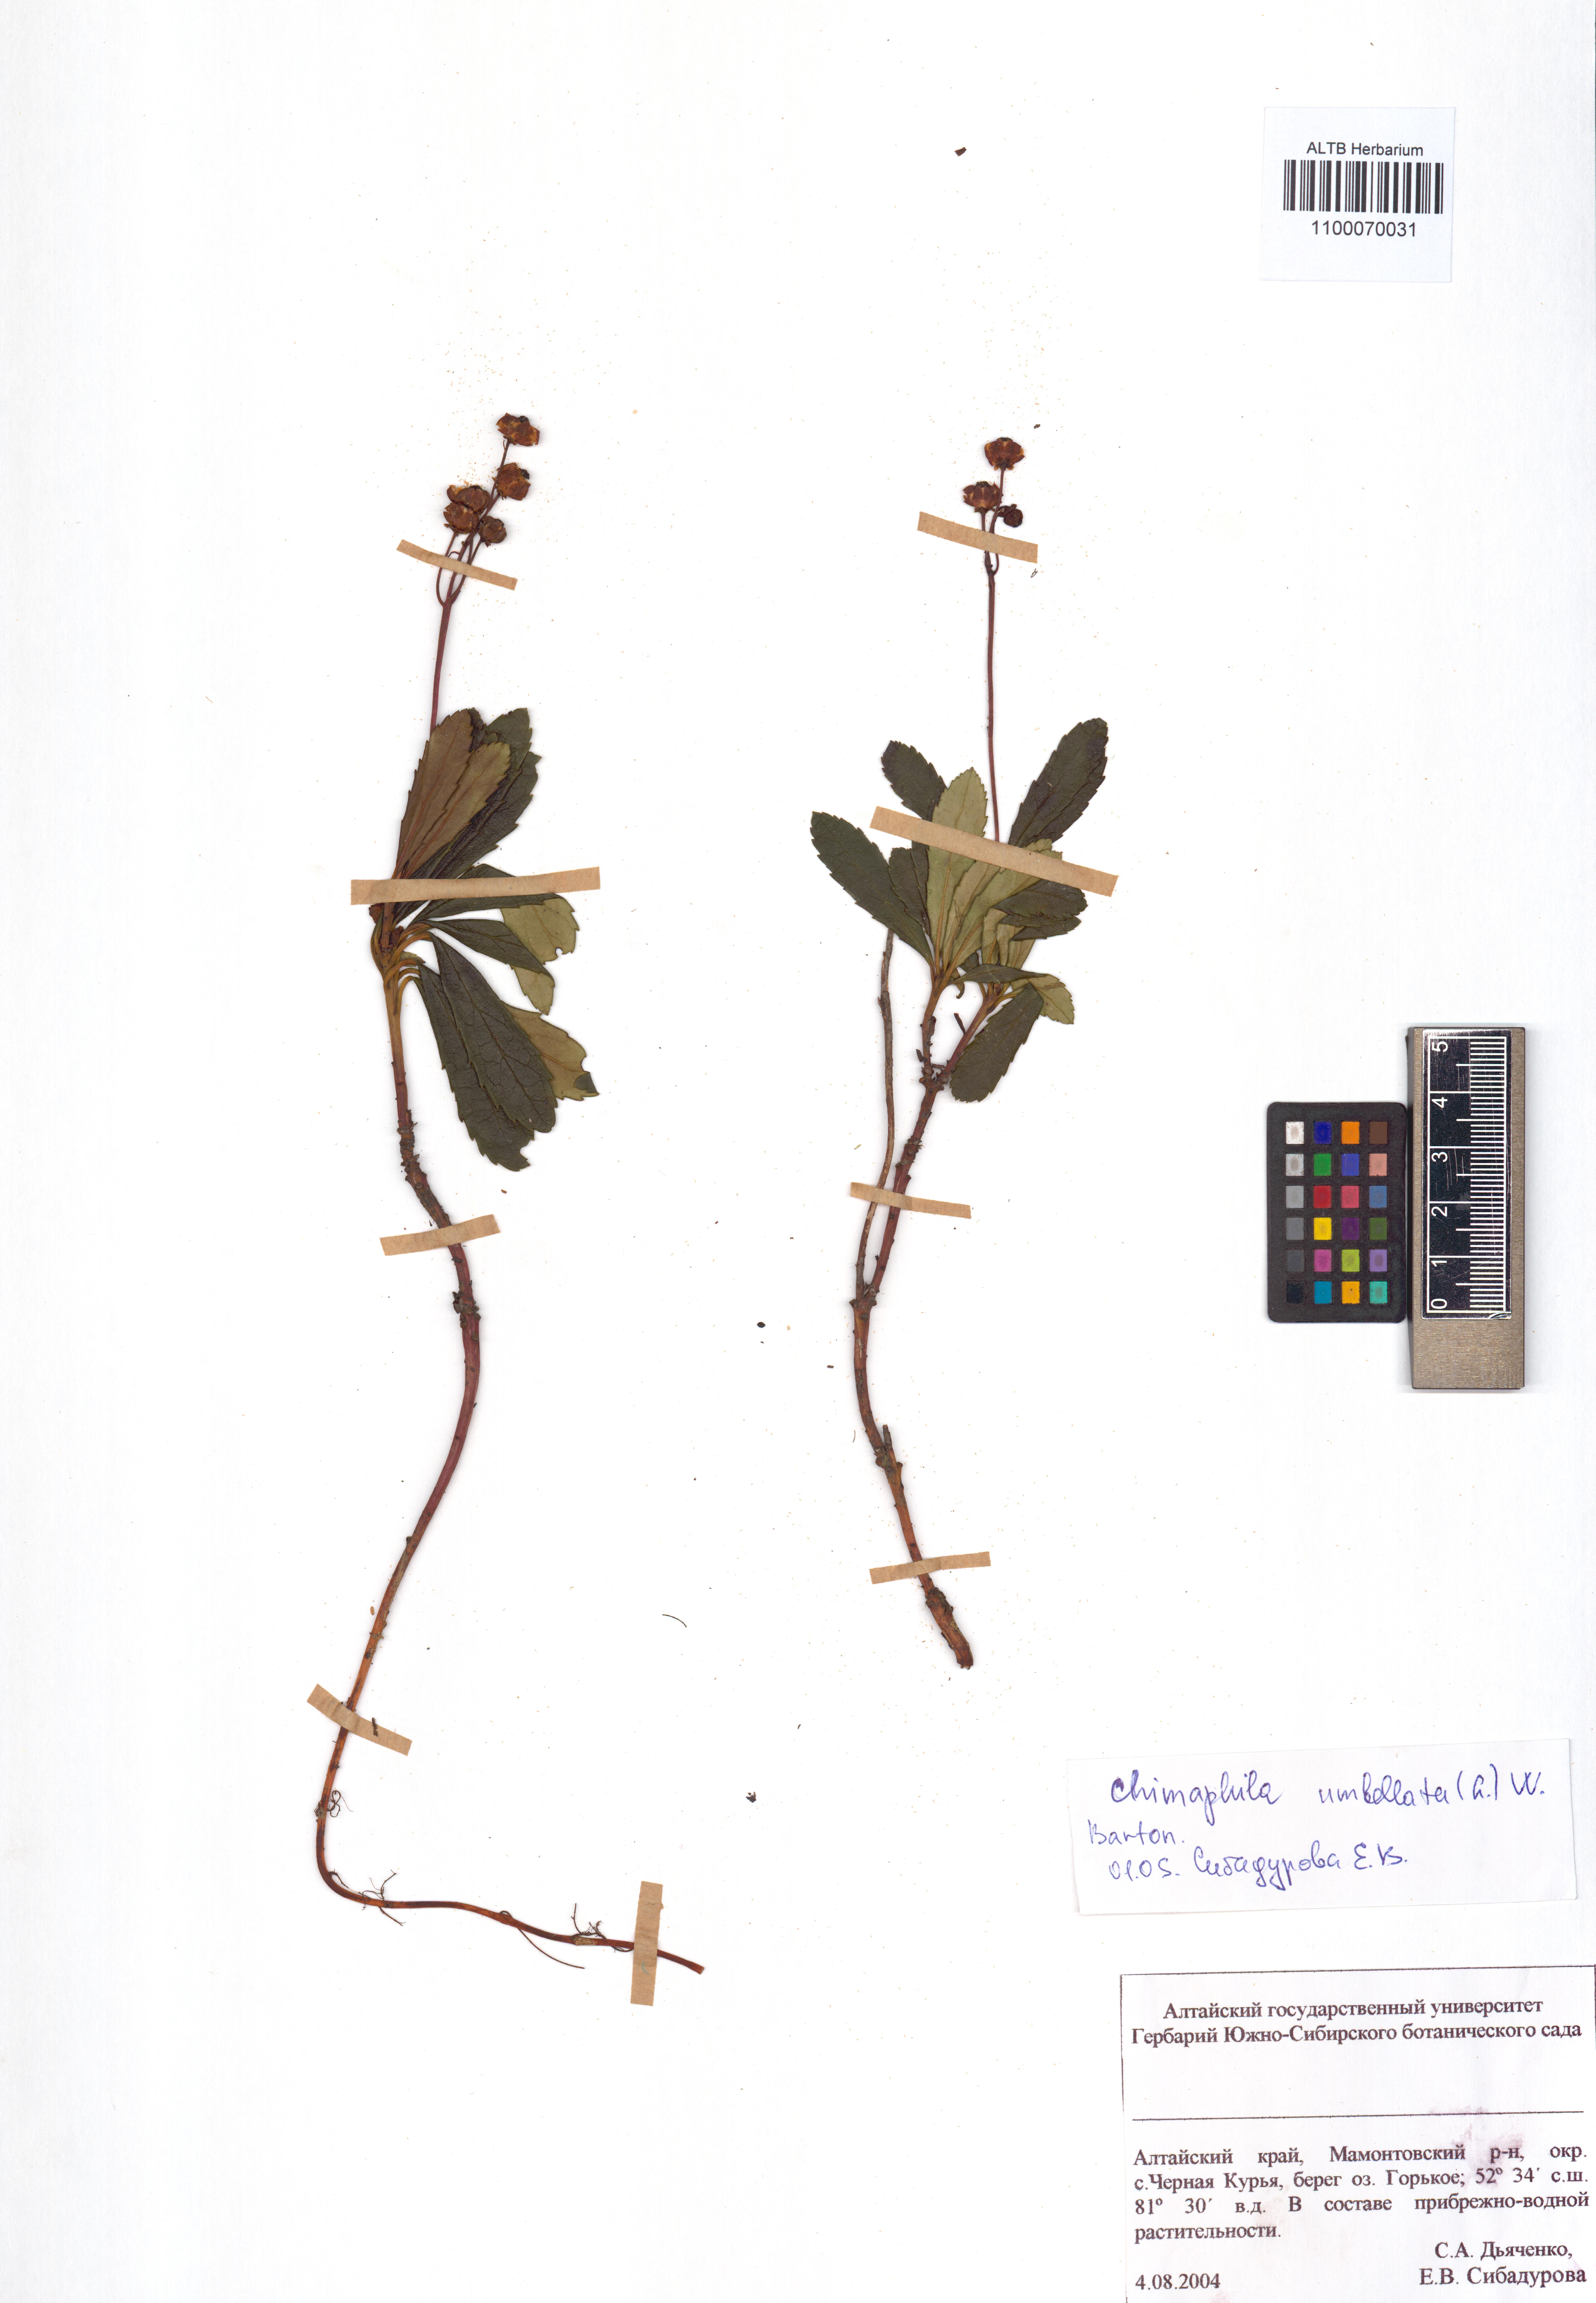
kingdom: Plantae
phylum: Tracheophyta
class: Magnoliopsida
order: Ericales
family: Ericaceae
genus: Chimaphila
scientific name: Chimaphila umbellata
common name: Pipsissewa
